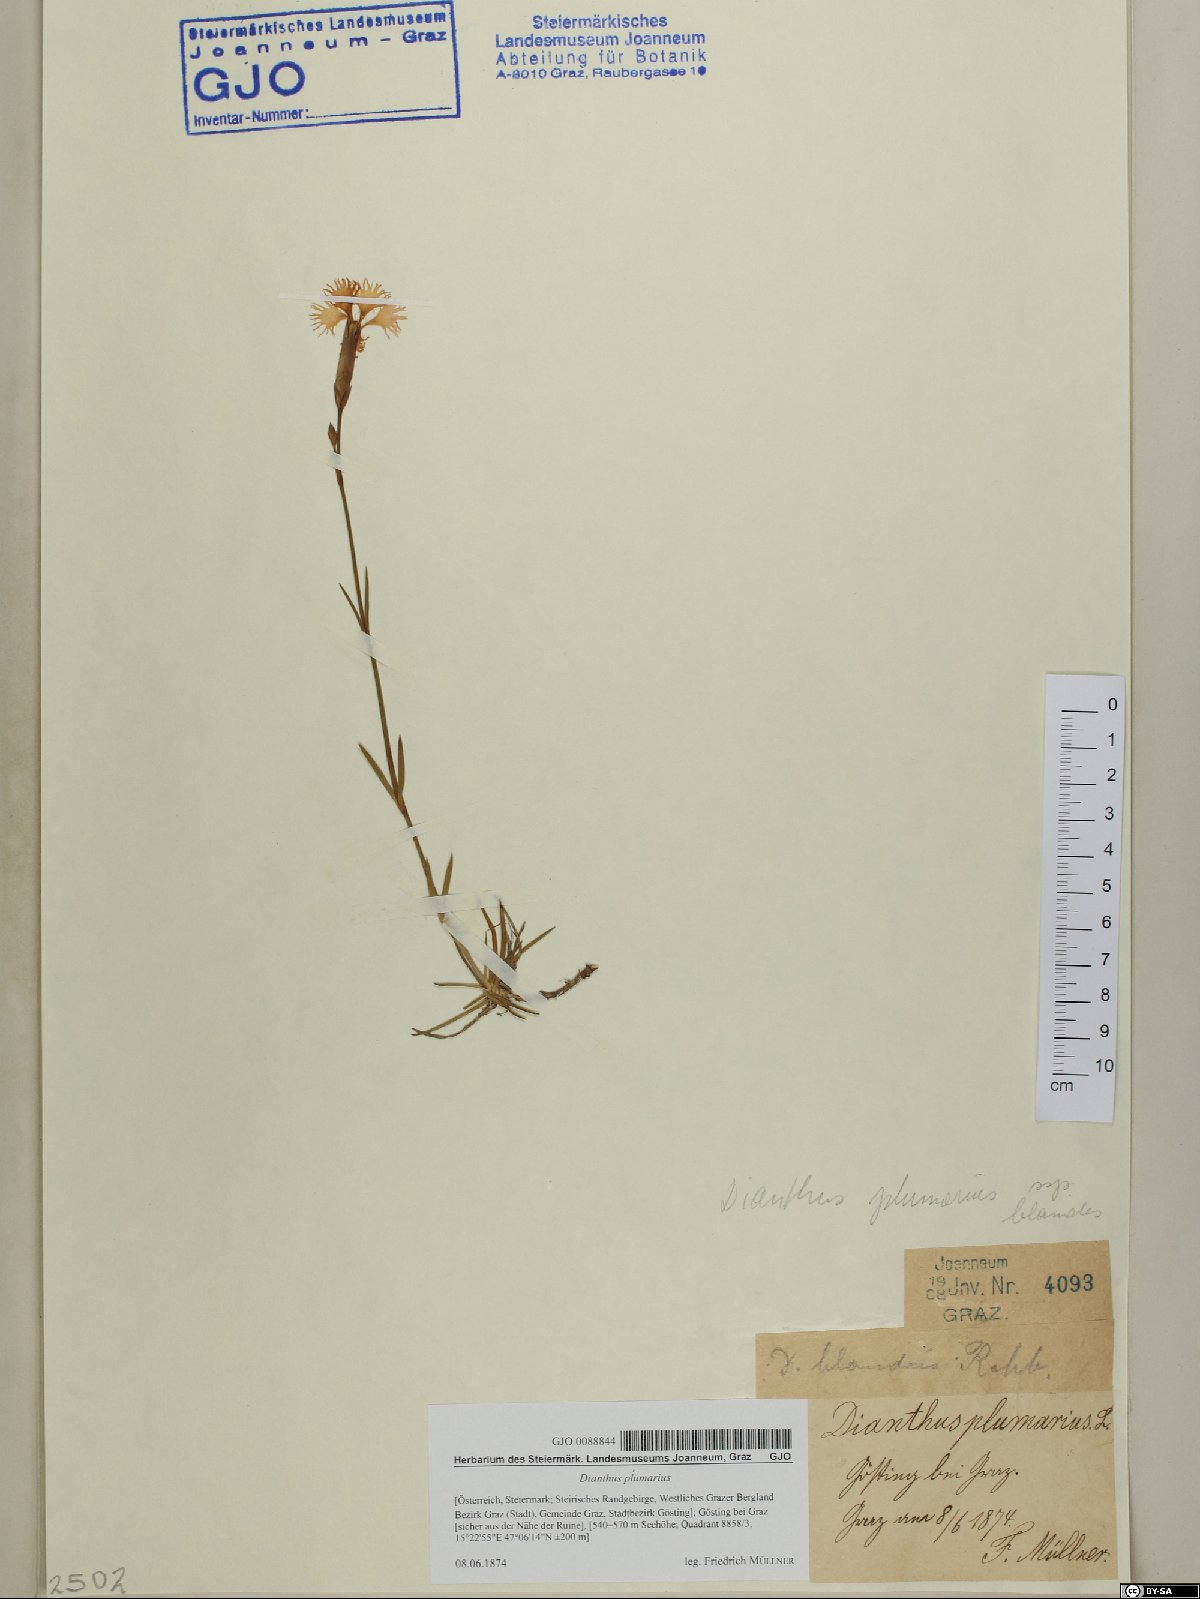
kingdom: Plantae
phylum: Tracheophyta
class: Magnoliopsida
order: Caryophyllales
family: Caryophyllaceae
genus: Dianthus
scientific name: Dianthus plumarius
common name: Pink
